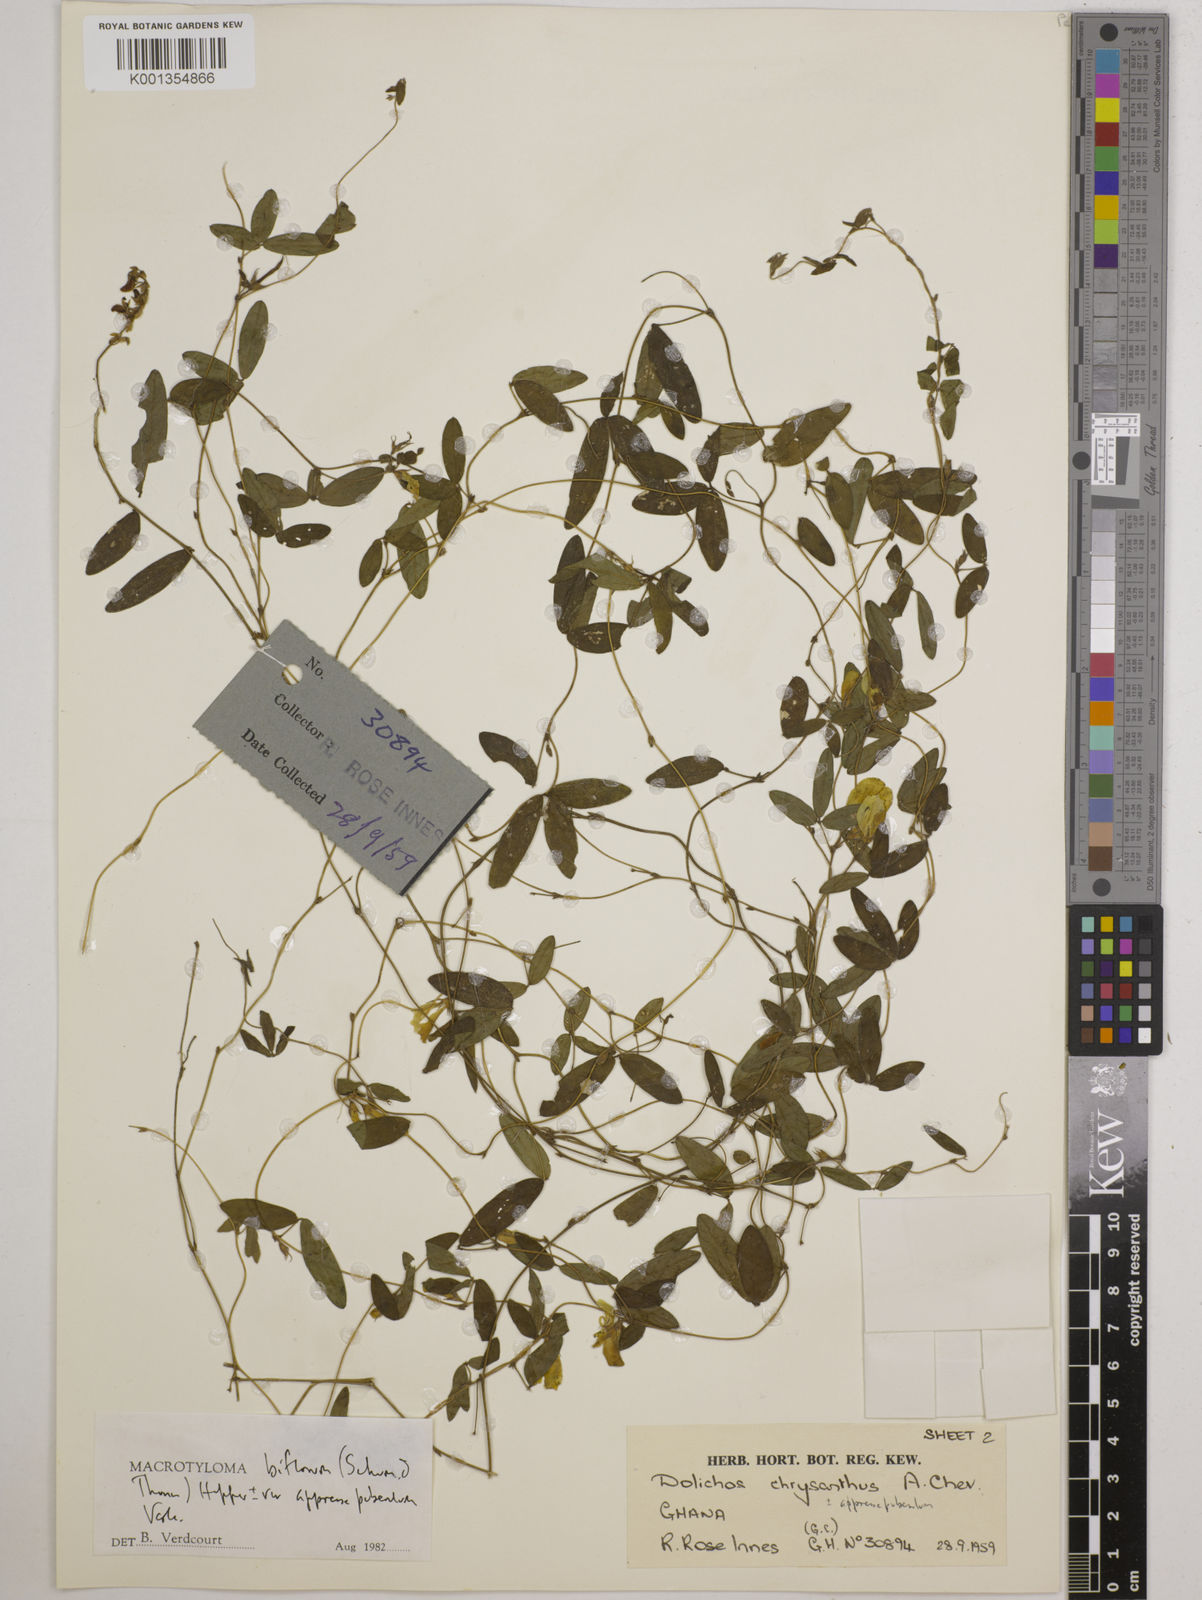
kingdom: Plantae
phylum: Tracheophyta
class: Magnoliopsida
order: Fabales
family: Fabaceae
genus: Macrotyloma
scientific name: Macrotyloma biflorum
